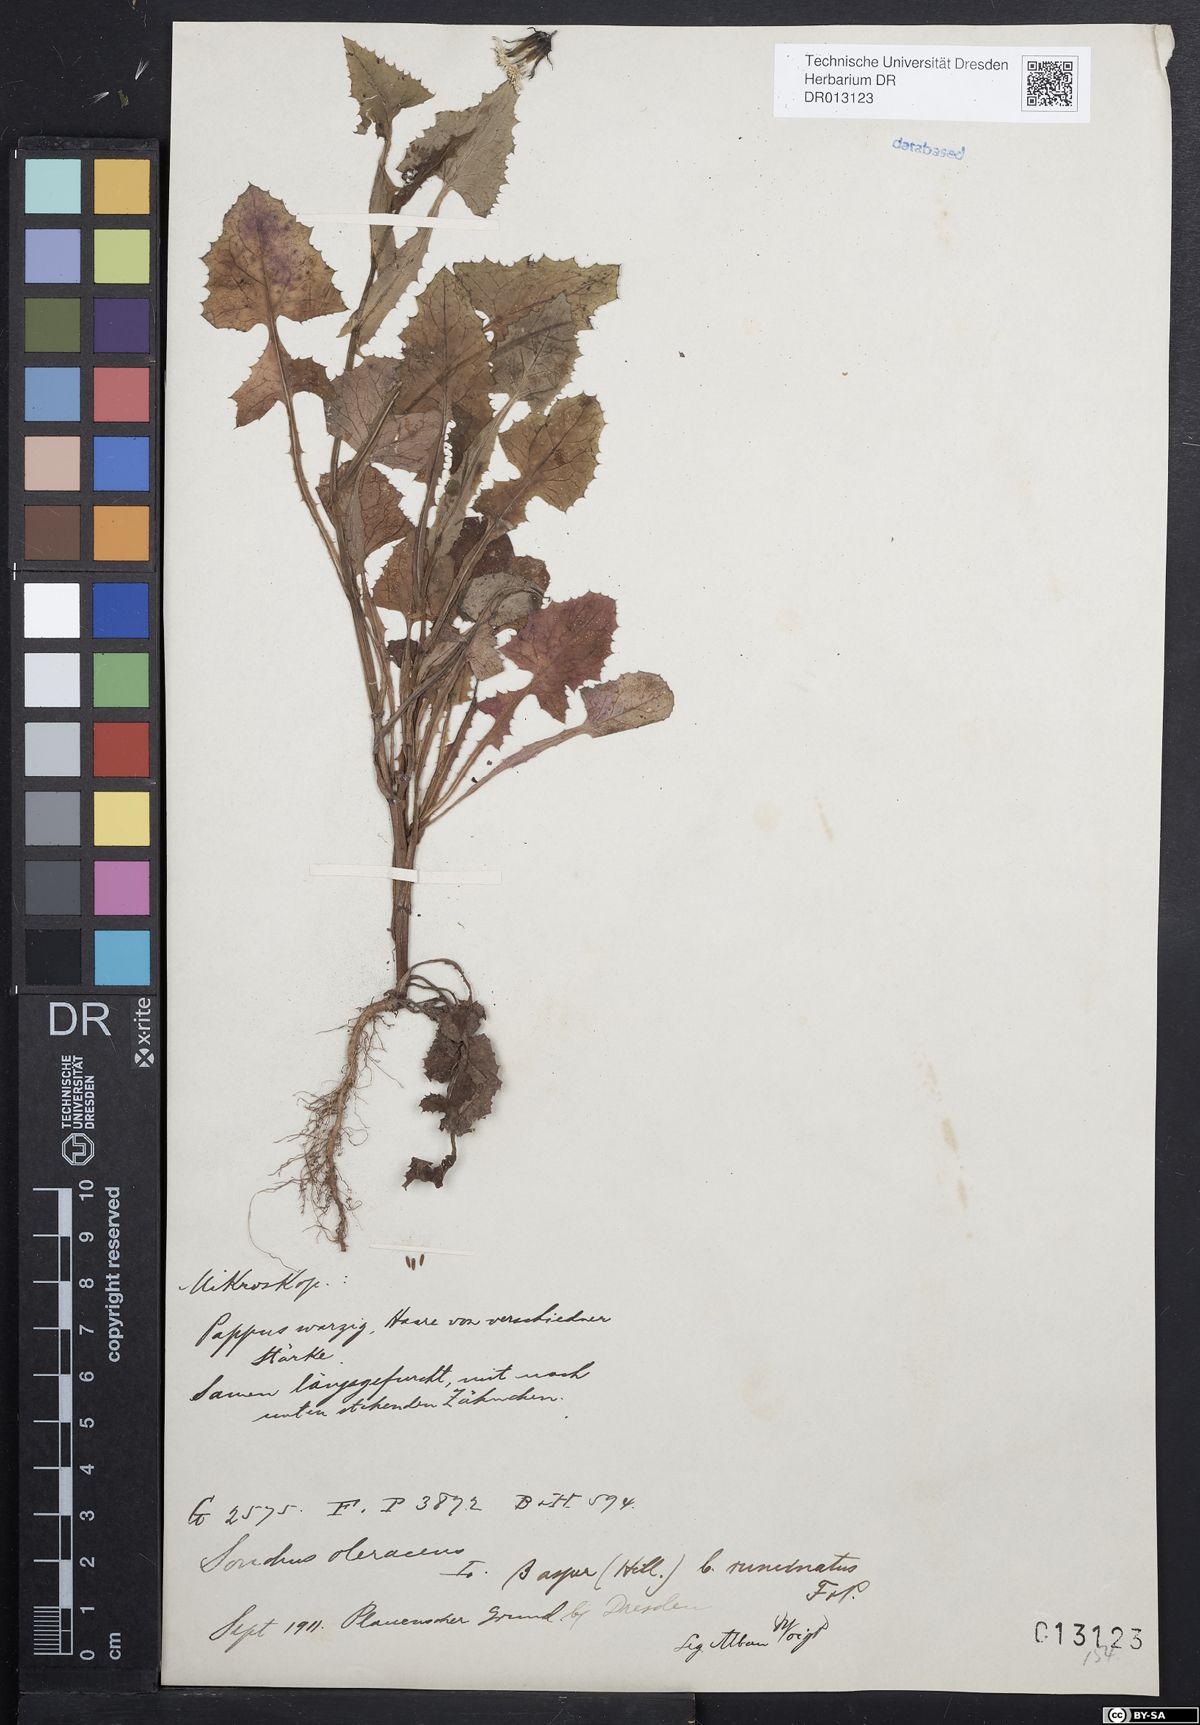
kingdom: Plantae
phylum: Tracheophyta
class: Magnoliopsida
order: Asterales
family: Asteraceae
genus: Sonchus
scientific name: Sonchus oleraceus
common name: Common sowthistle
